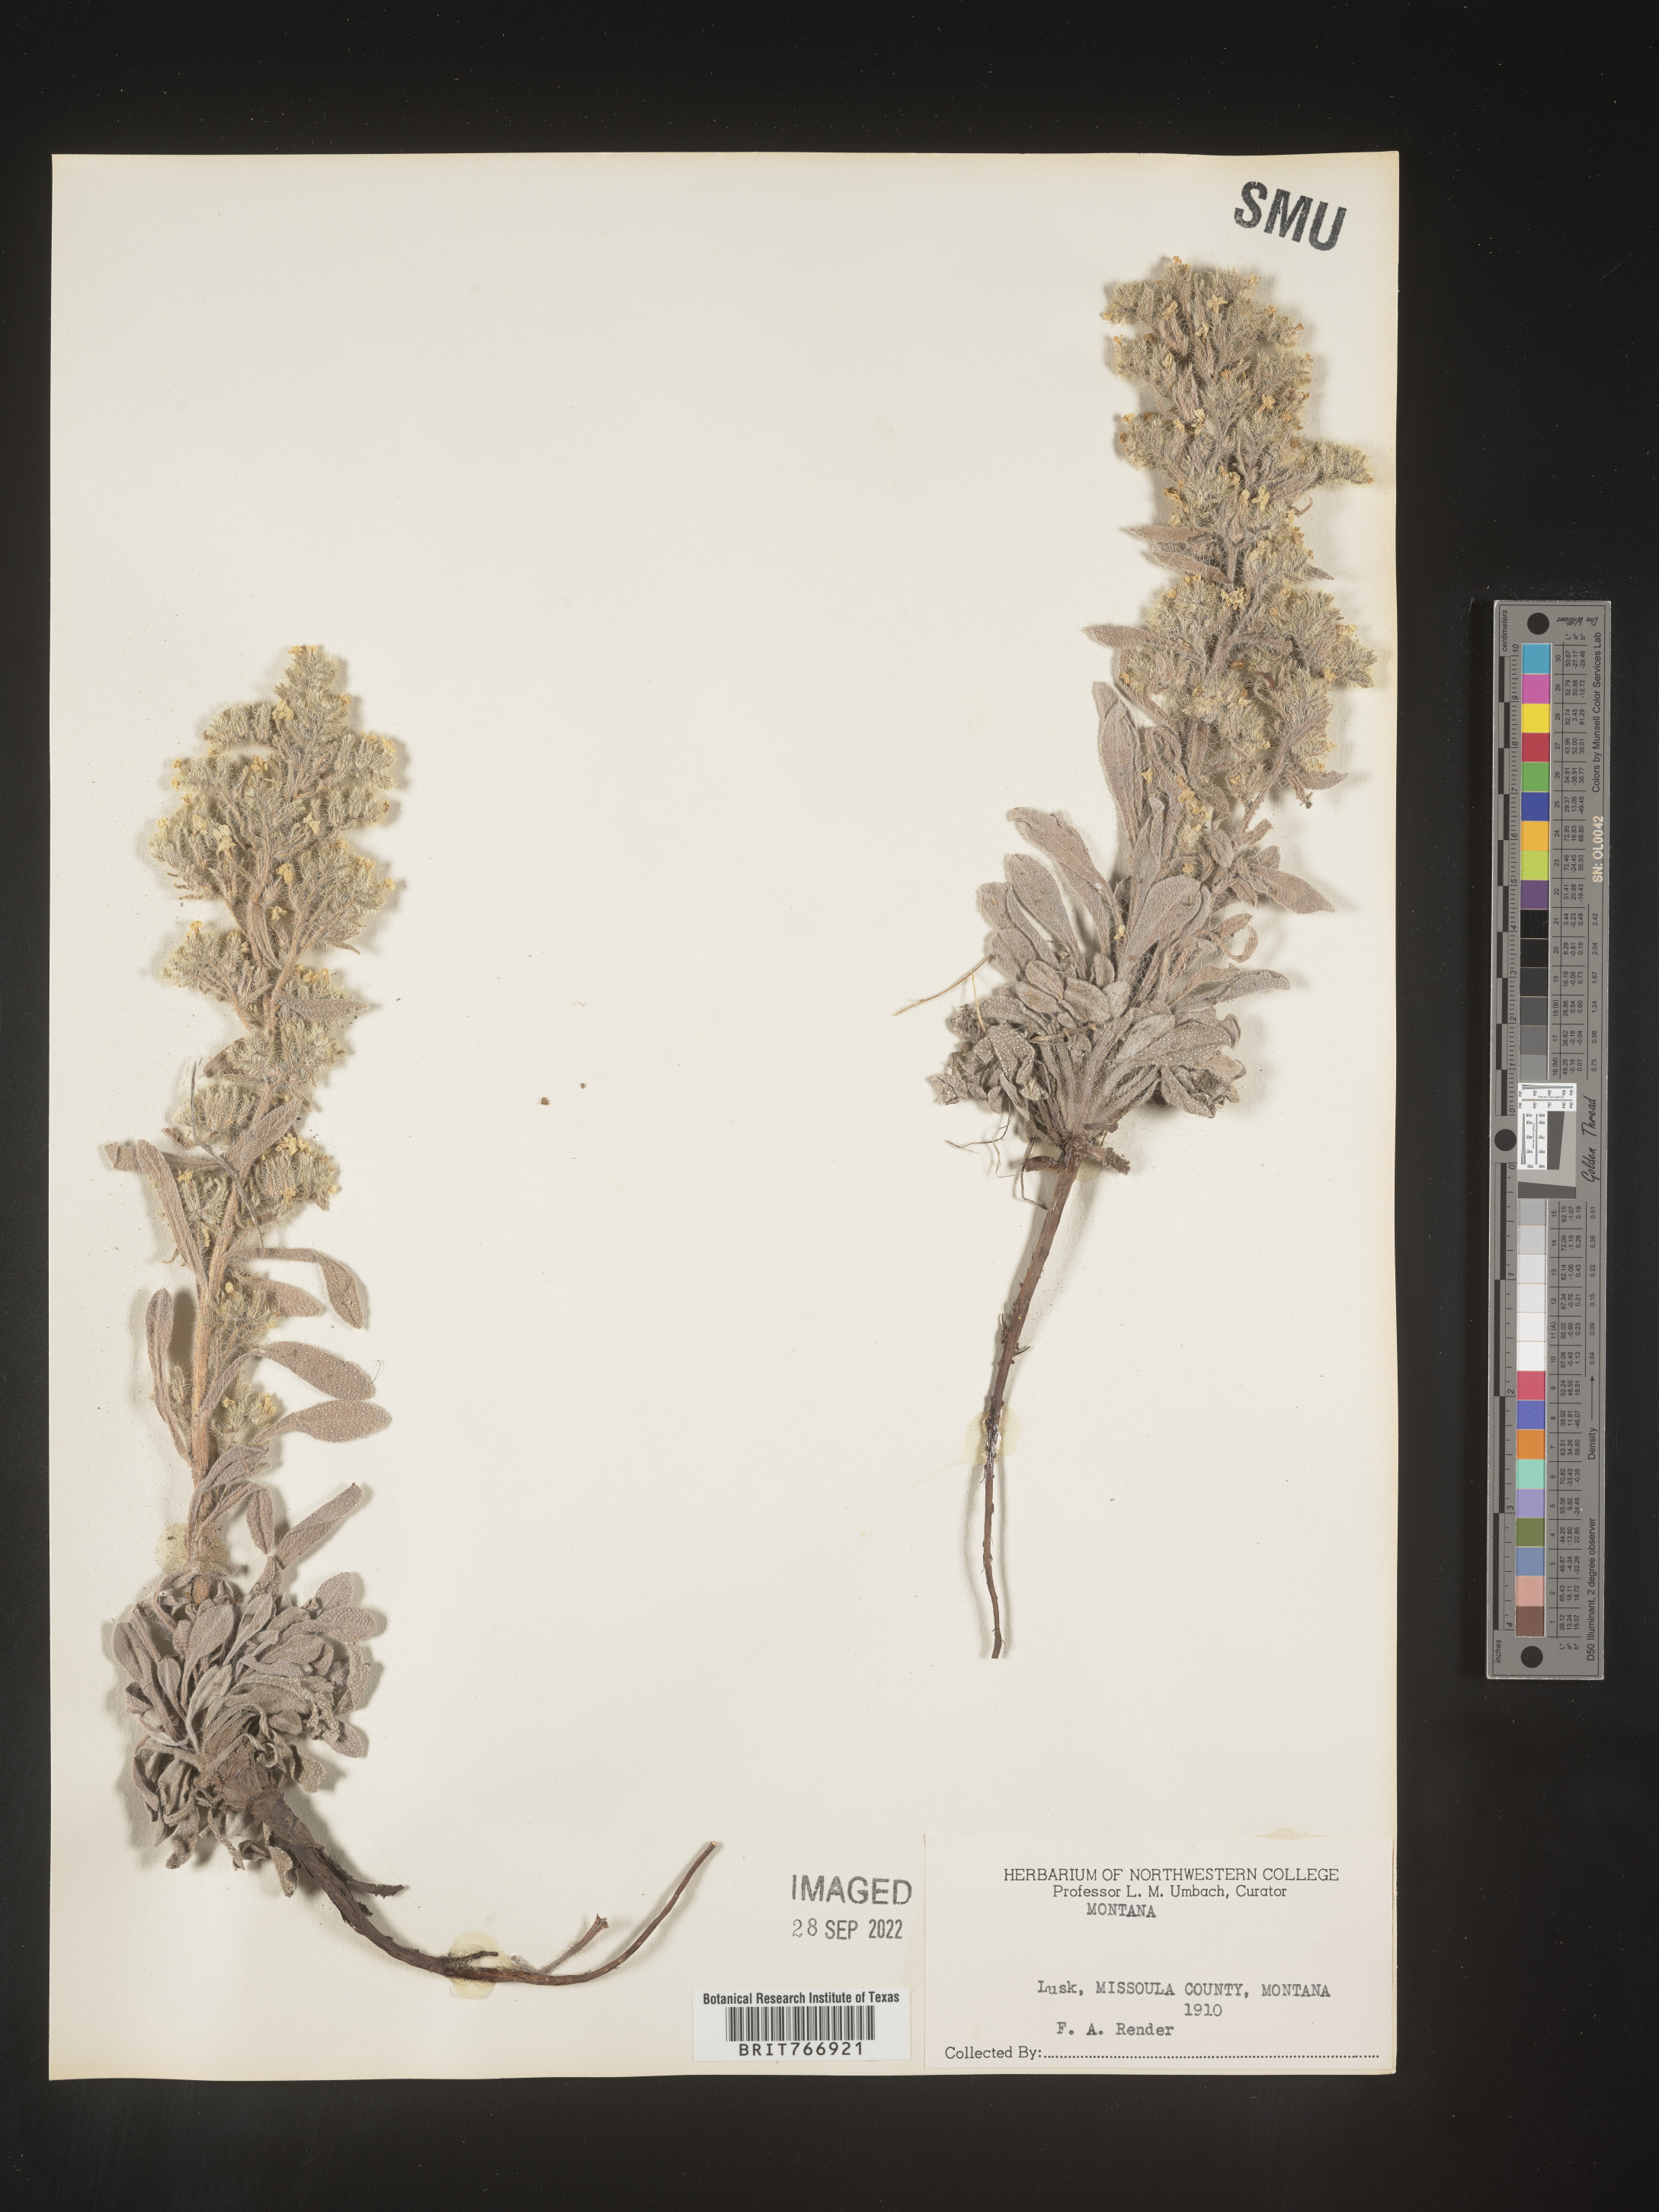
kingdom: Plantae
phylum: Tracheophyta
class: Magnoliopsida
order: Boraginales
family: Boraginaceae
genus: Cryptantha
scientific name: Cryptantha
